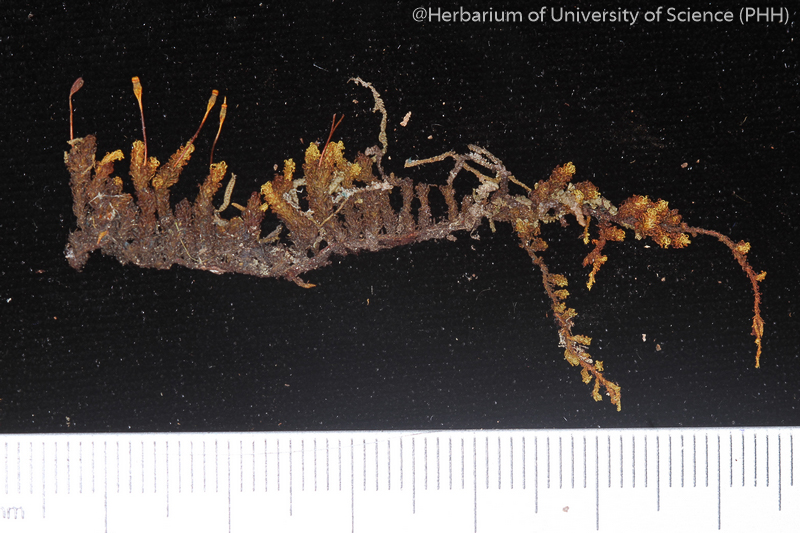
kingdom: Plantae
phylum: Bryophyta
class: Bryopsida
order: Orthotrichales
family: Orthotrichaceae
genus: Macromitrium
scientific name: Macromitrium japonicum
